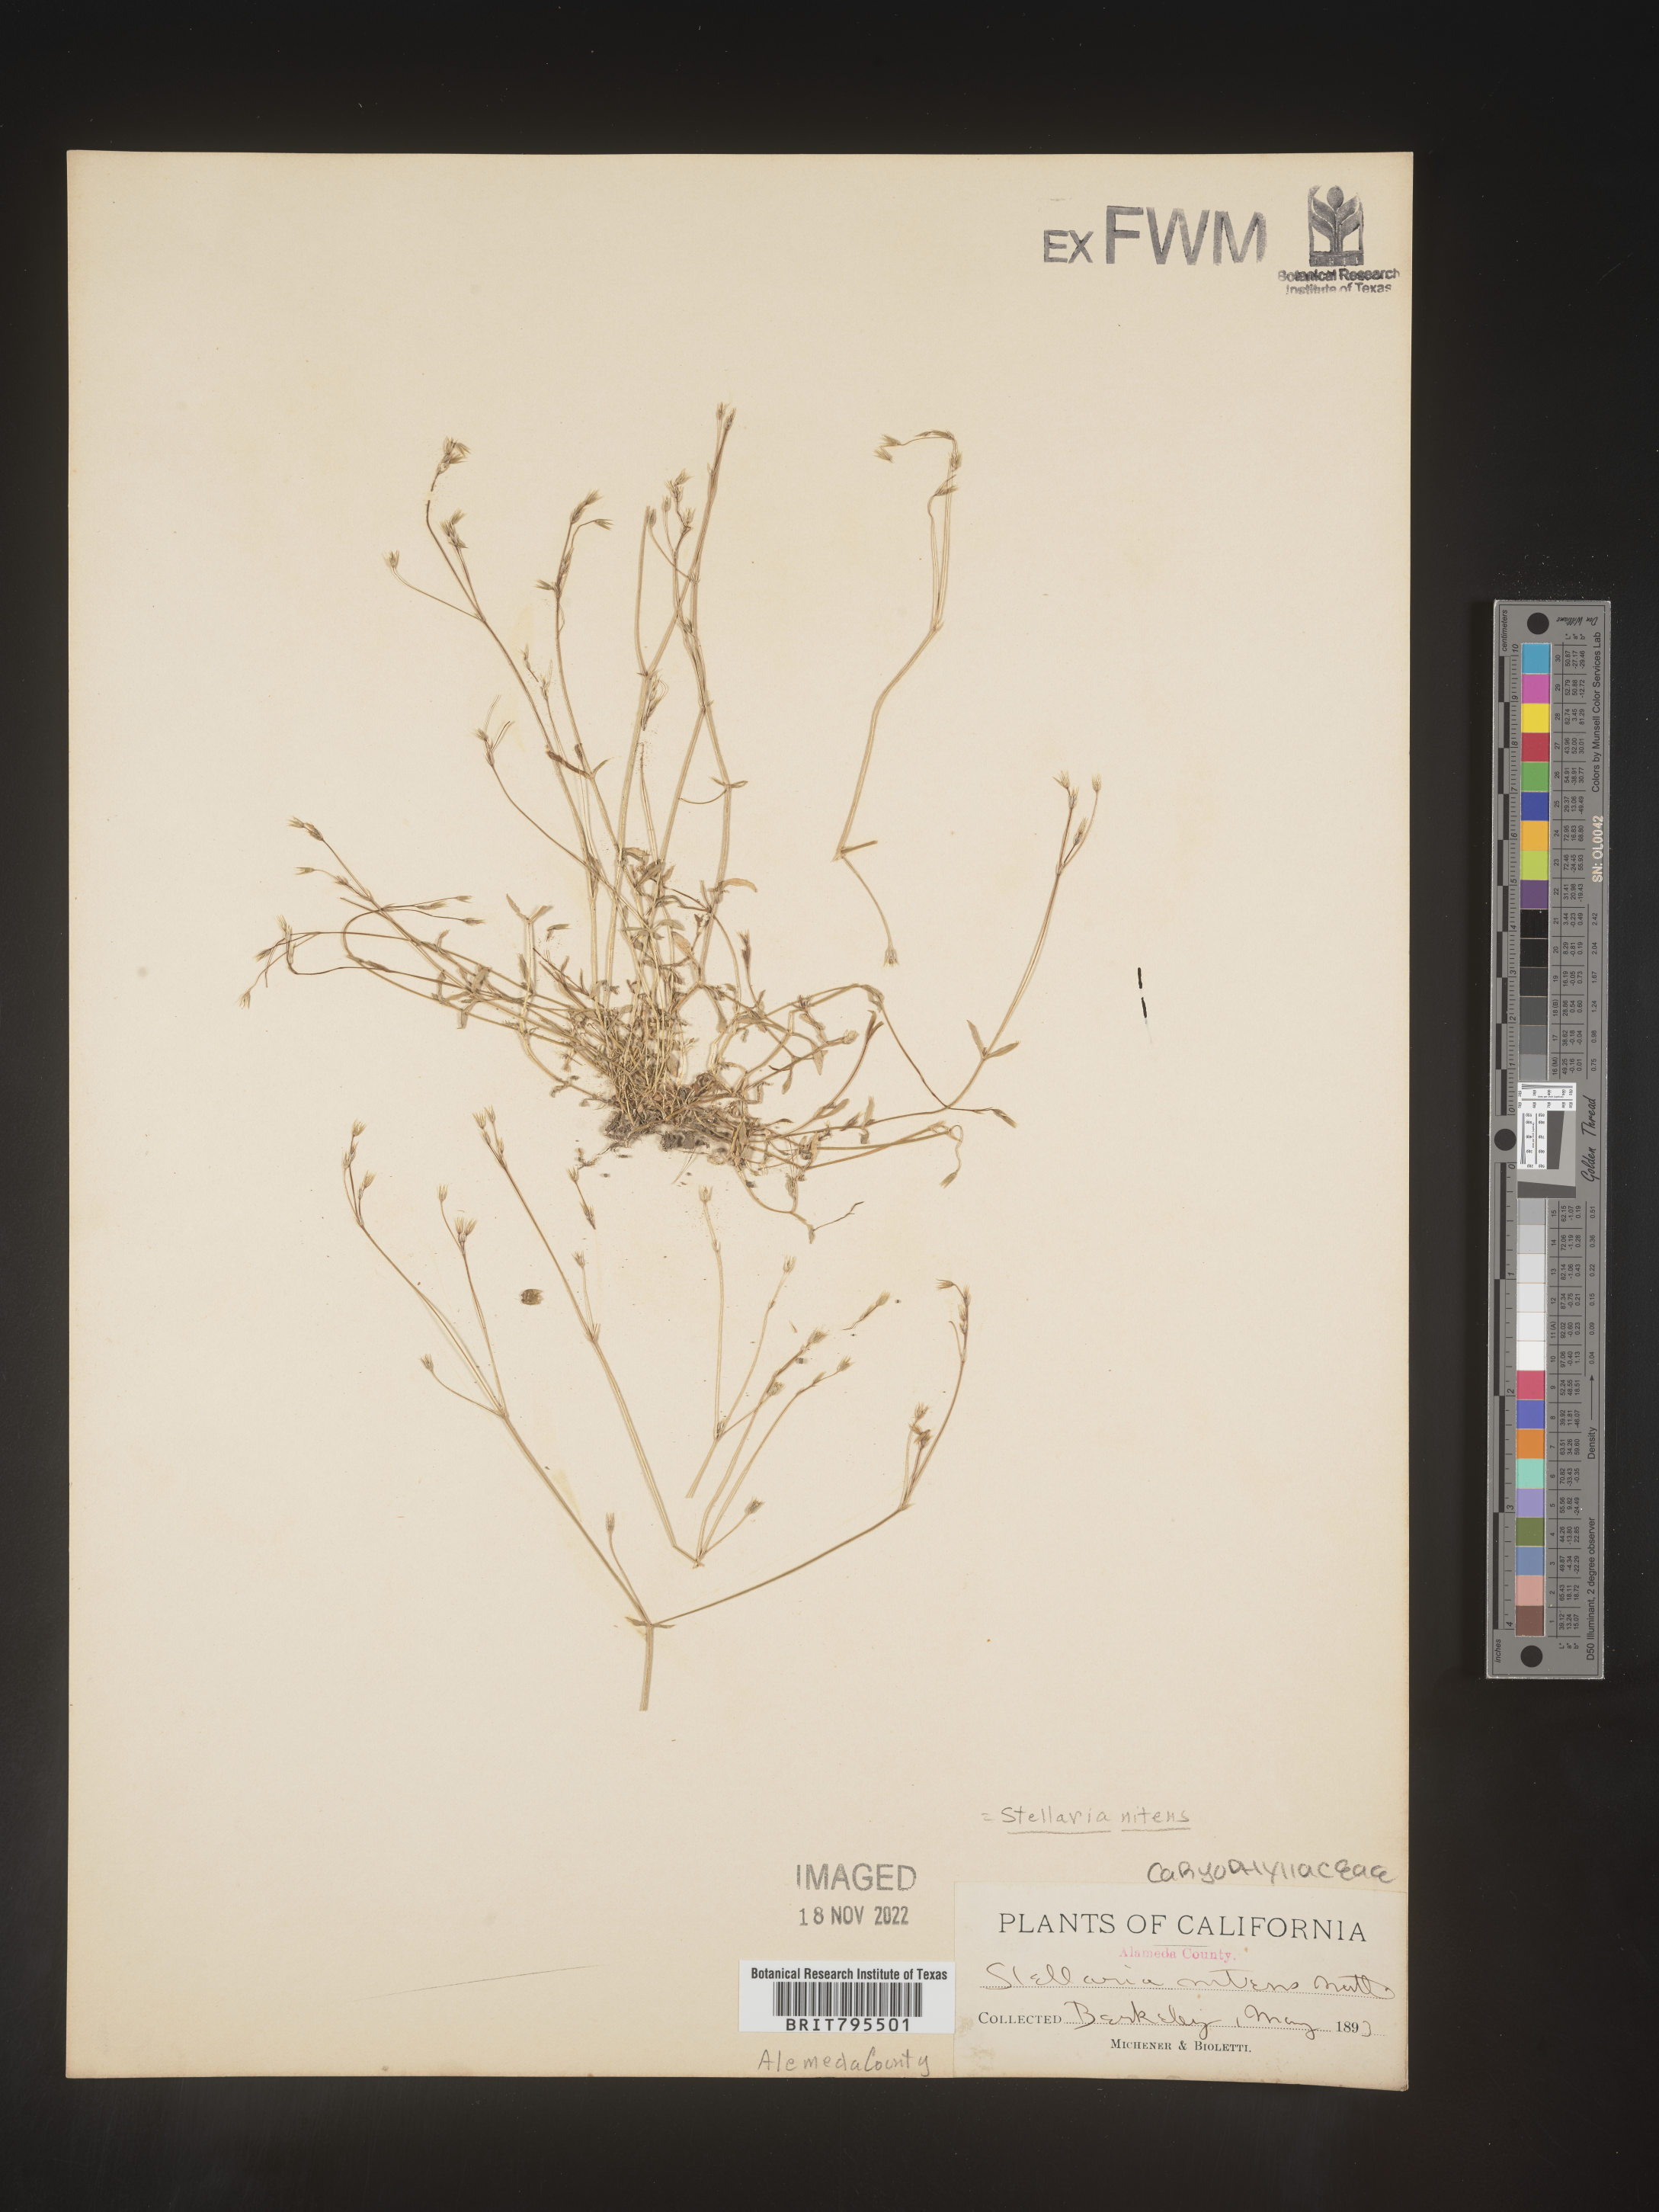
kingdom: Plantae
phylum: Tracheophyta
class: Magnoliopsida
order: Caryophyllales
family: Caryophyllaceae
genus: Stellaria
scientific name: Stellaria nitens
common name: Shining starwort
